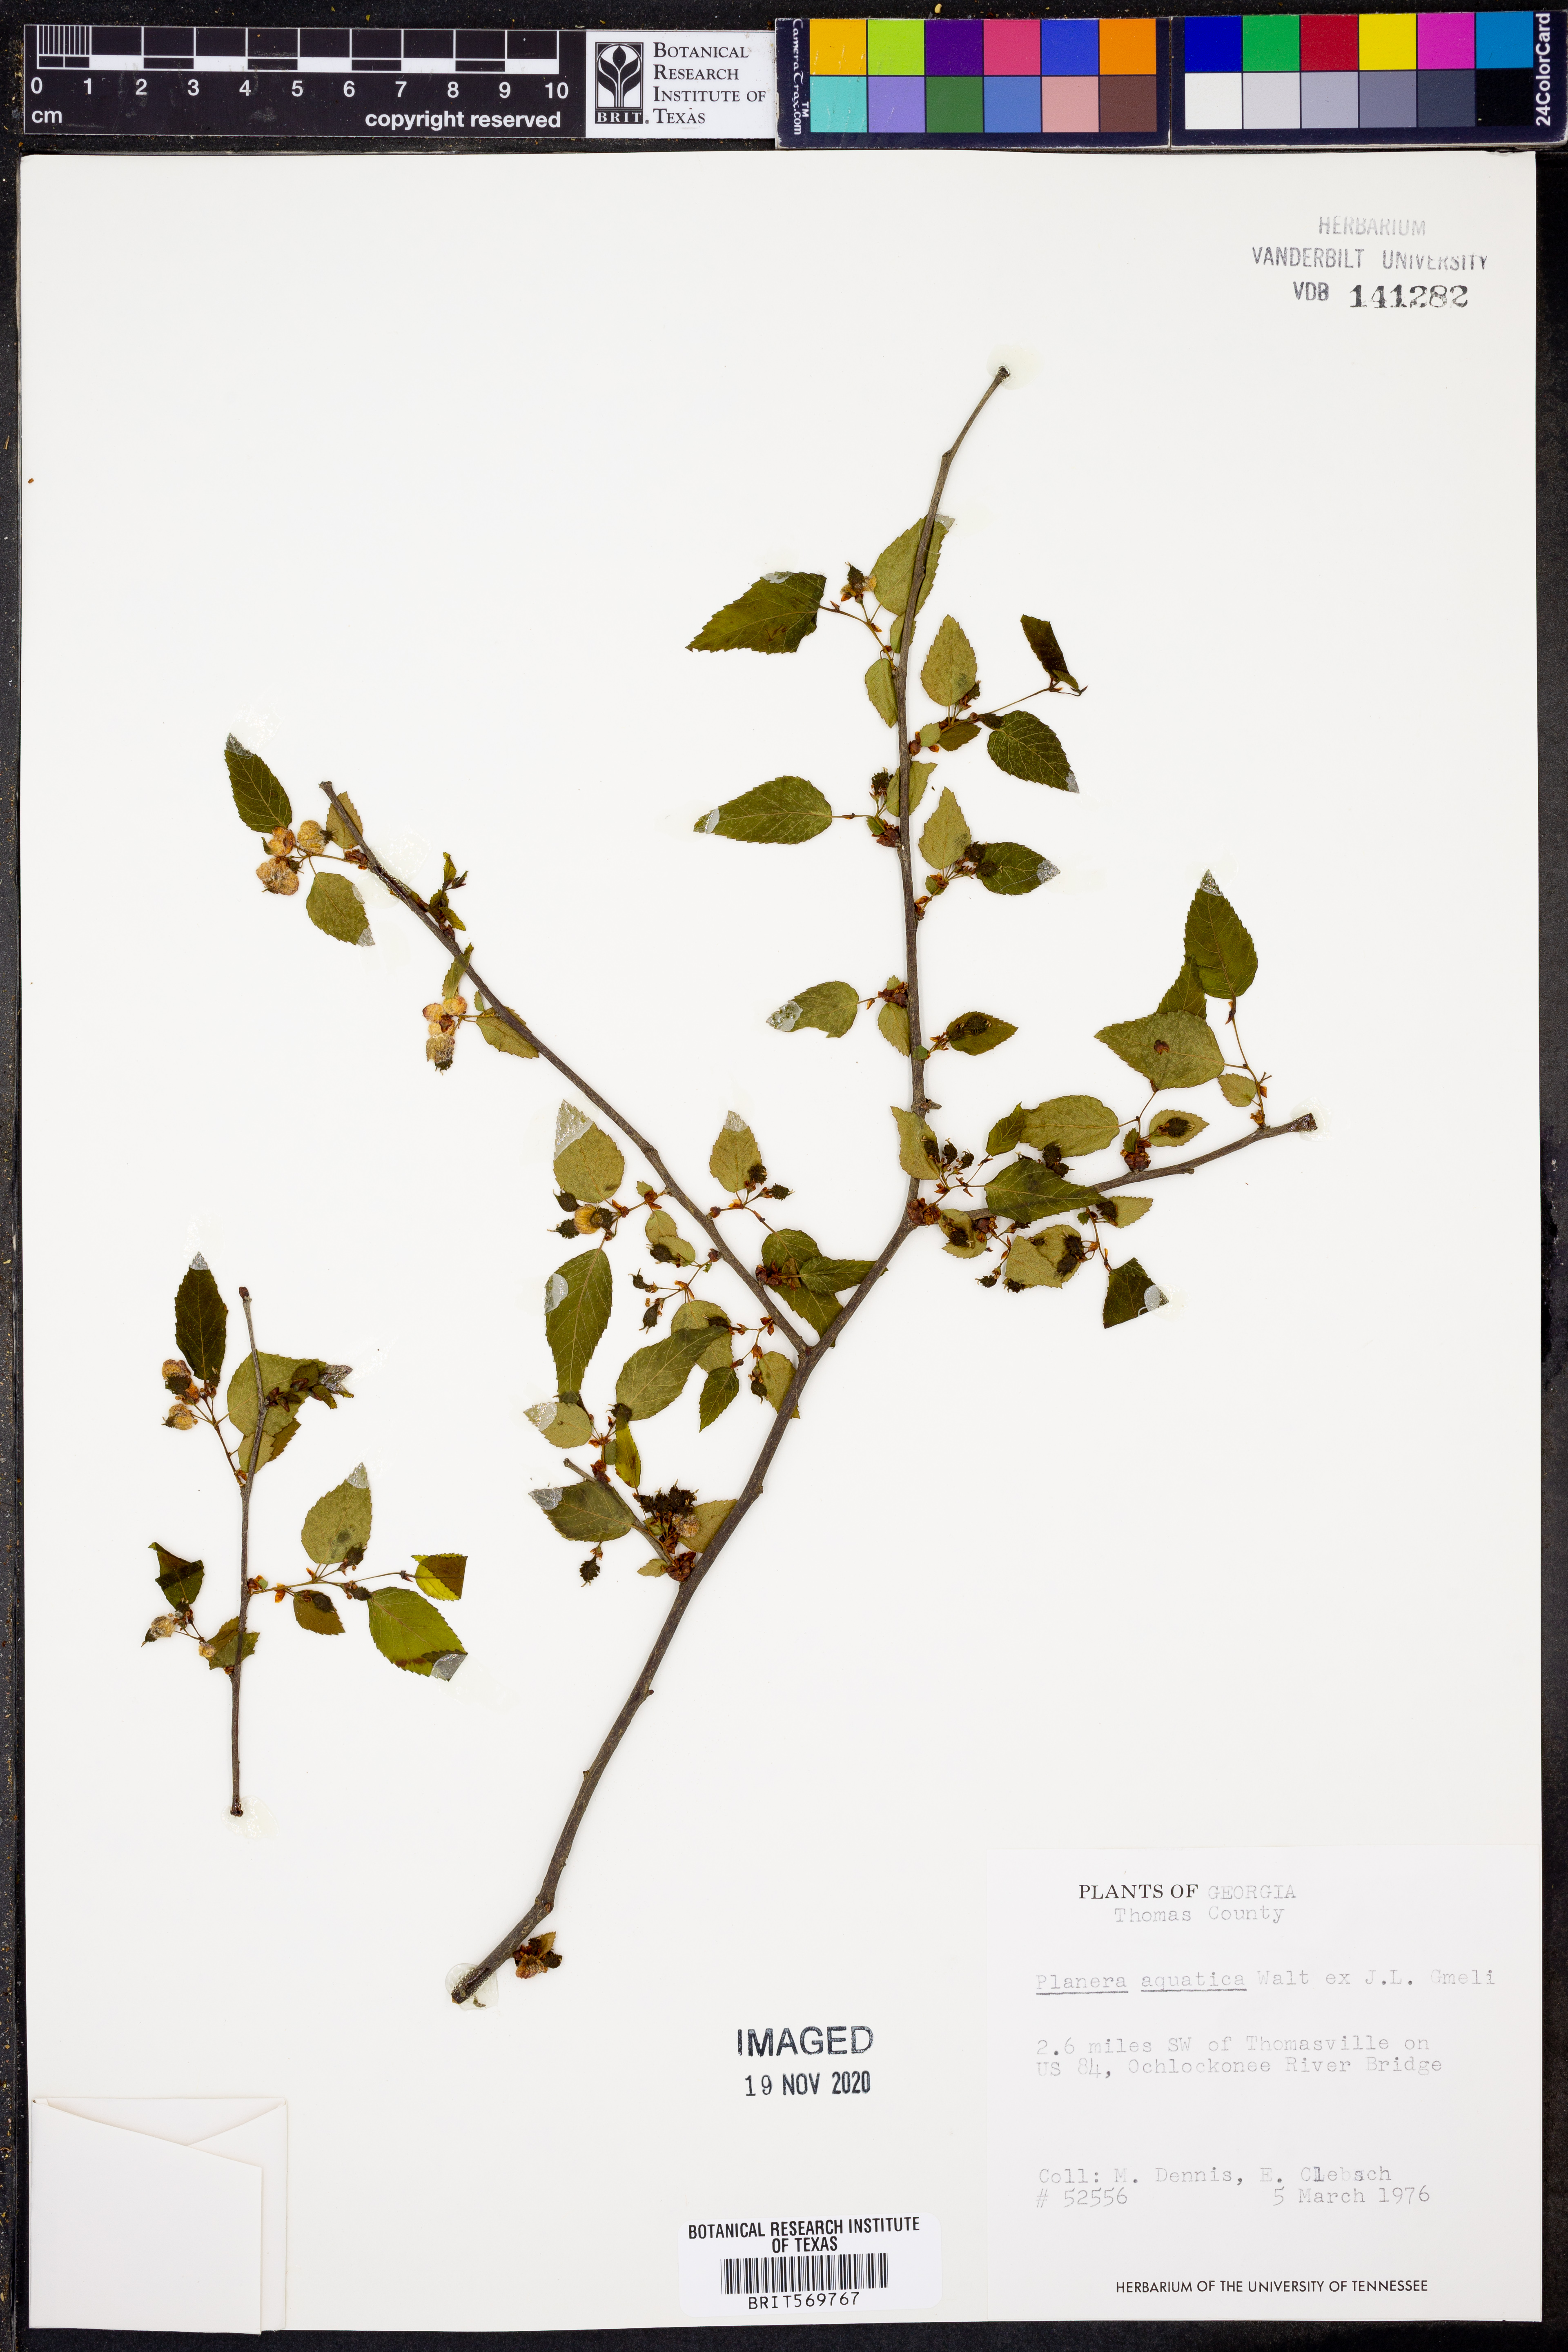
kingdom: Plantae
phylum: Tracheophyta
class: Magnoliopsida
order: Rosales
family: Ulmaceae
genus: Planera
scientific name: Planera aquatica
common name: Water-elm
